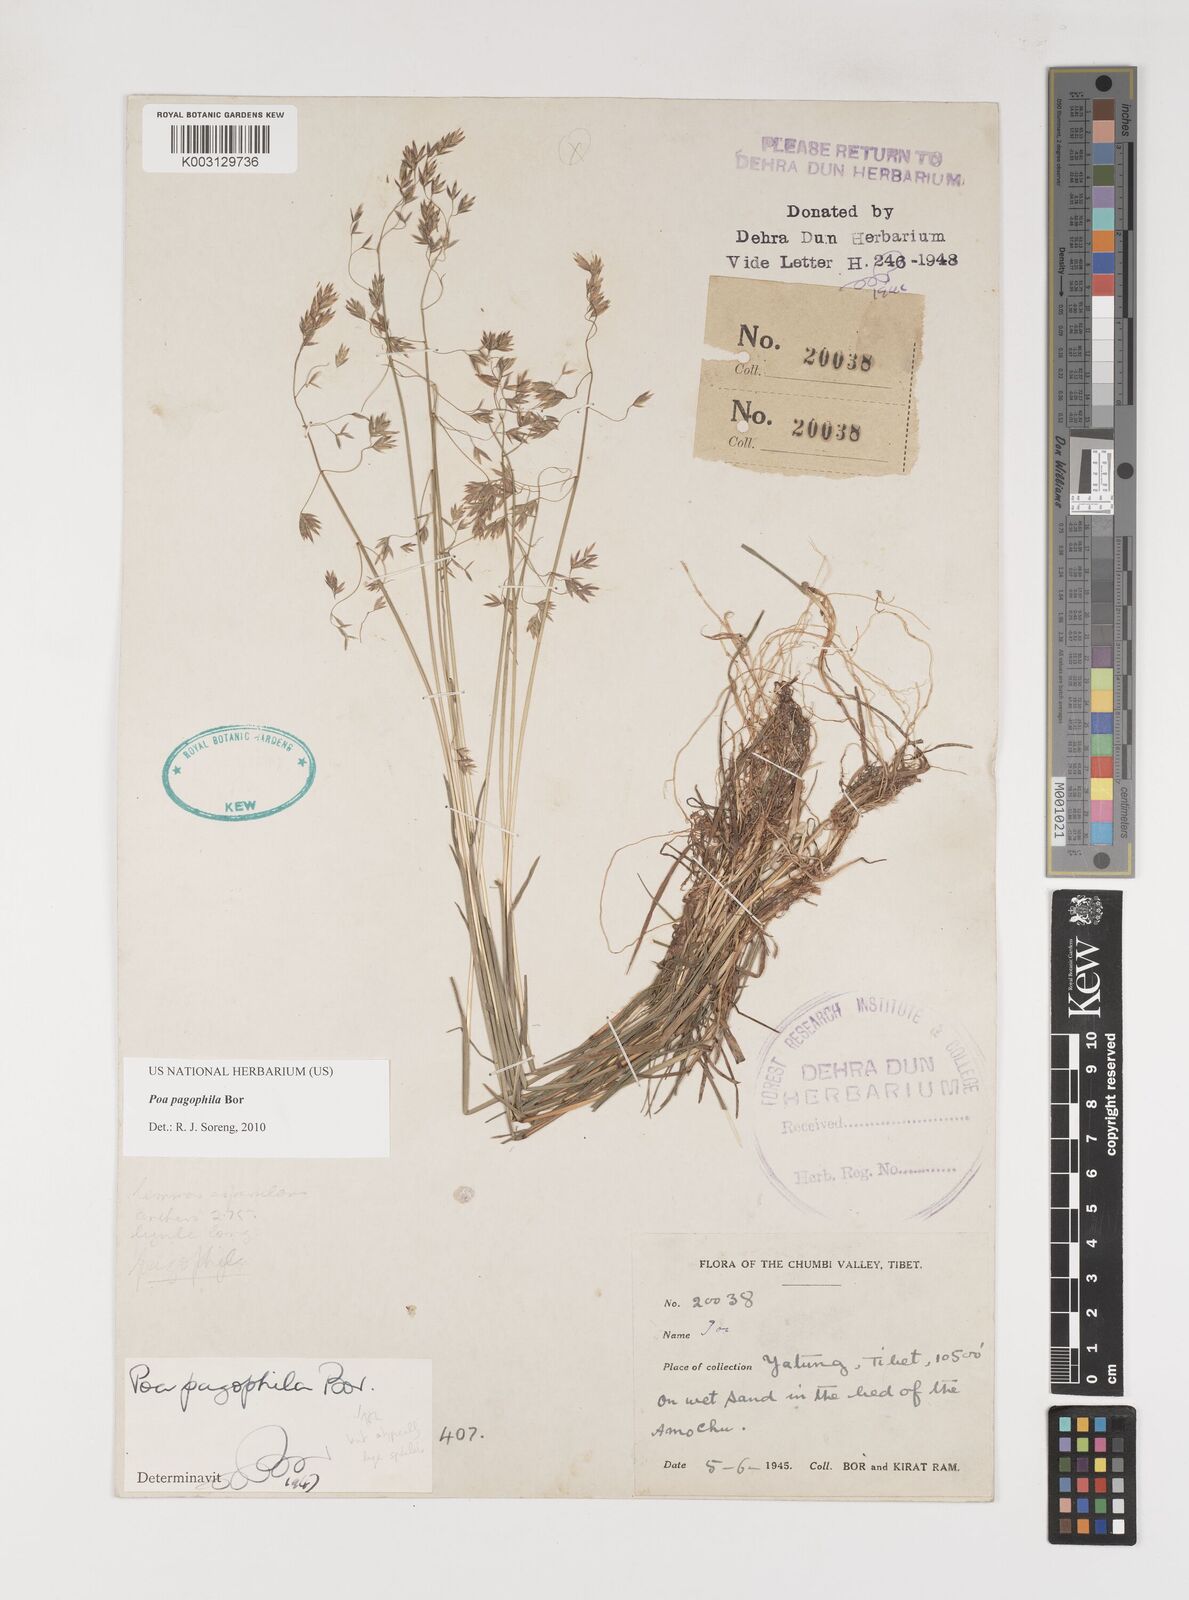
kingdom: Plantae
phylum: Tracheophyta
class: Liliopsida
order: Poales
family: Poaceae
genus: Poa
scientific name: Poa pagophila
